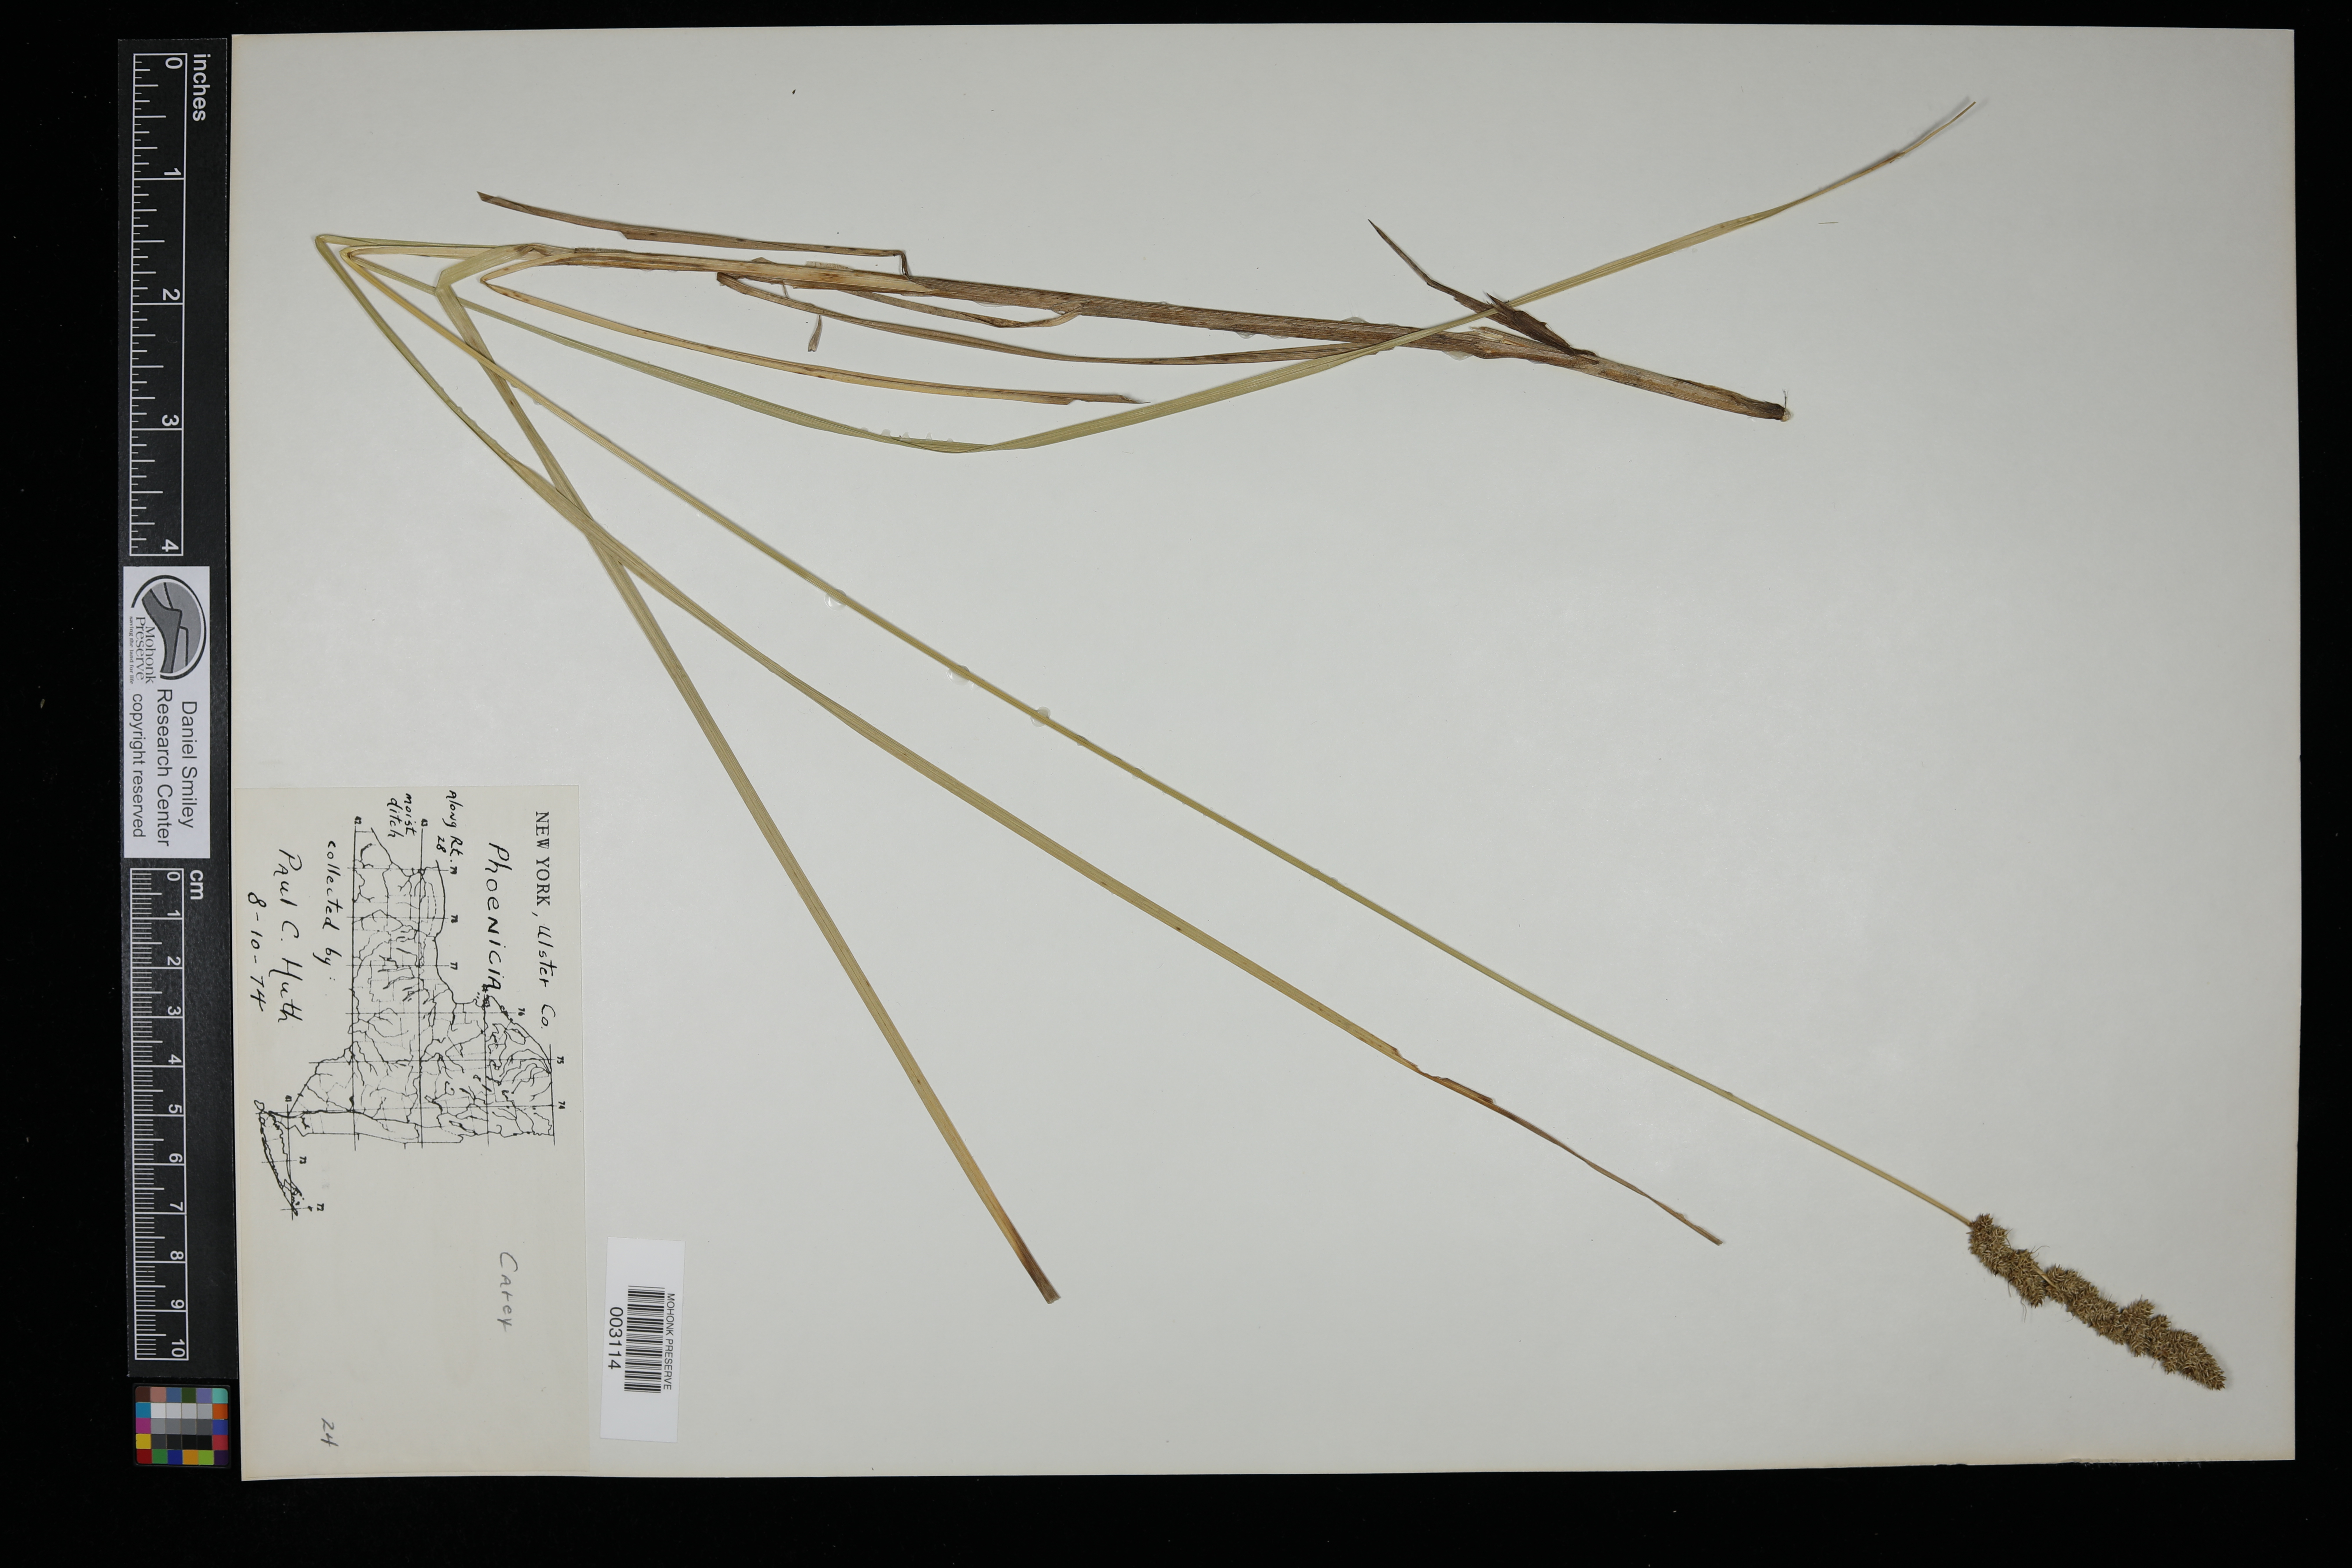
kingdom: Plantae
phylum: Tracheophyta
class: Liliopsida
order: Poales
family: Cyperaceae
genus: Carex
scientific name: Carex
